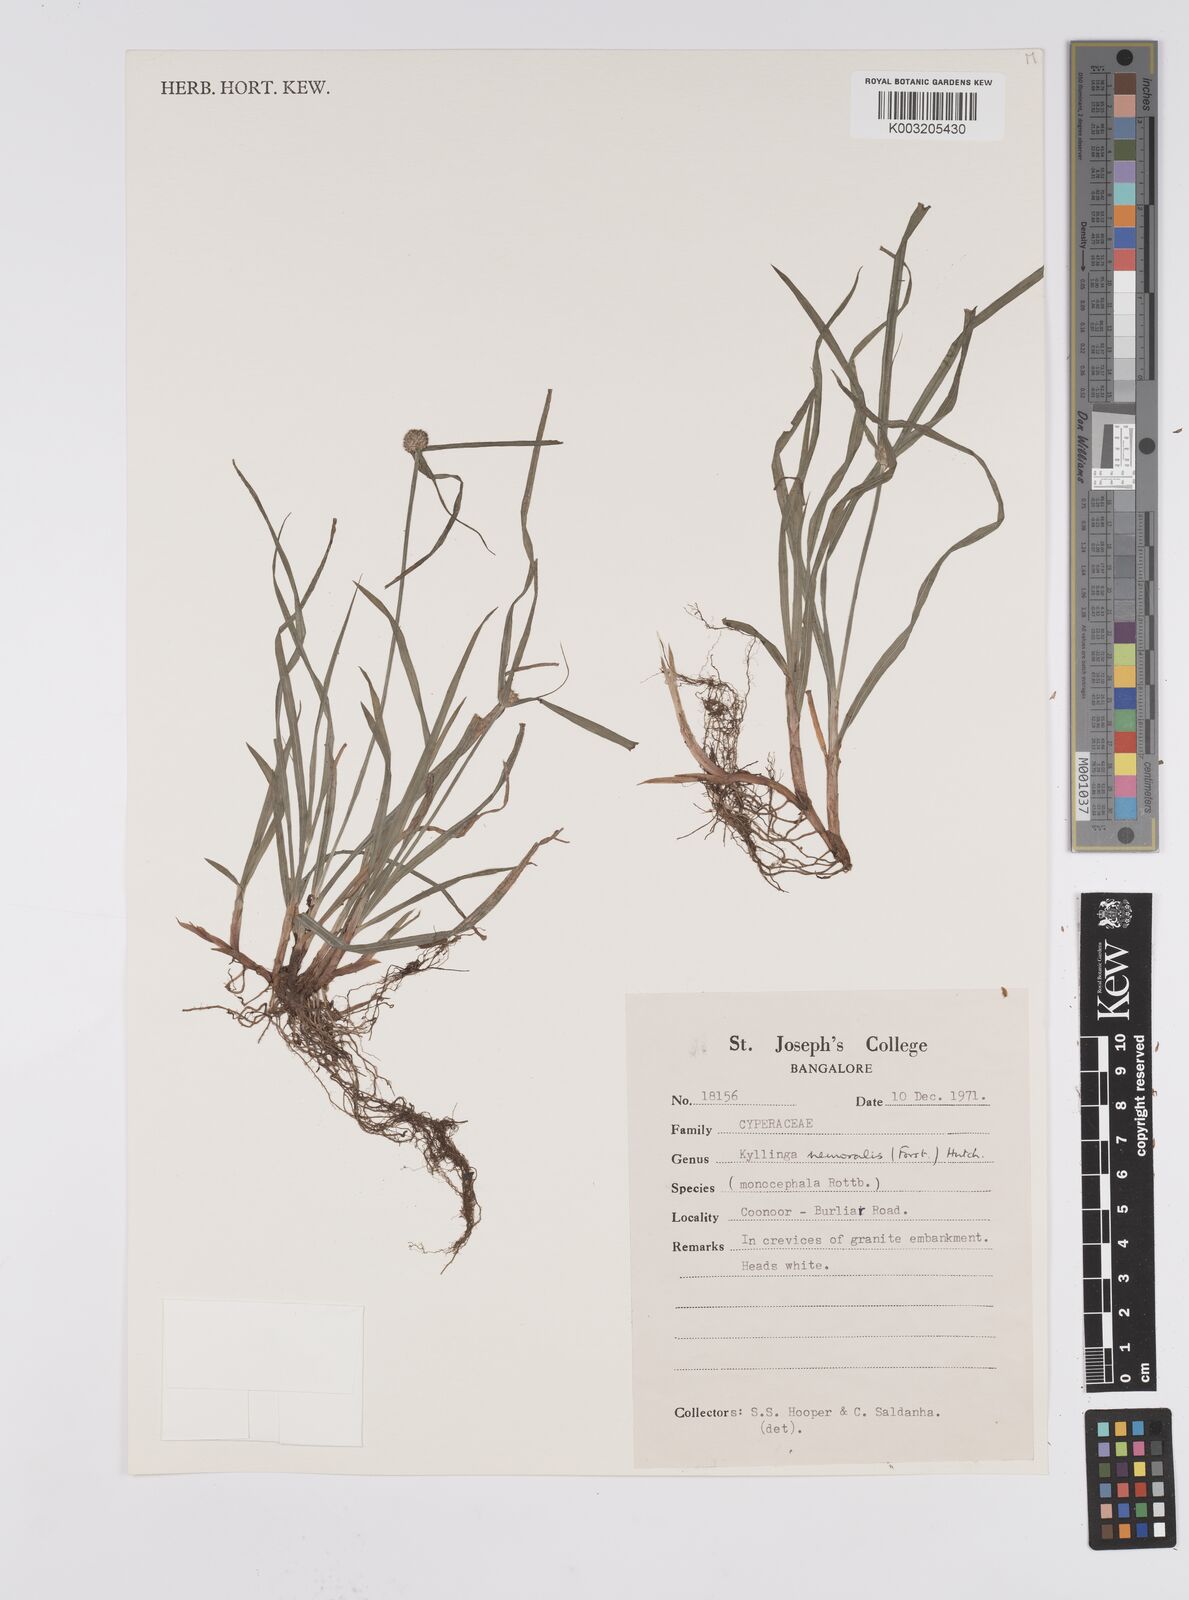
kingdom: Plantae
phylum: Tracheophyta
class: Liliopsida
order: Poales
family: Cyperaceae
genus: Cyperus
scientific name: Cyperus nemoralis
